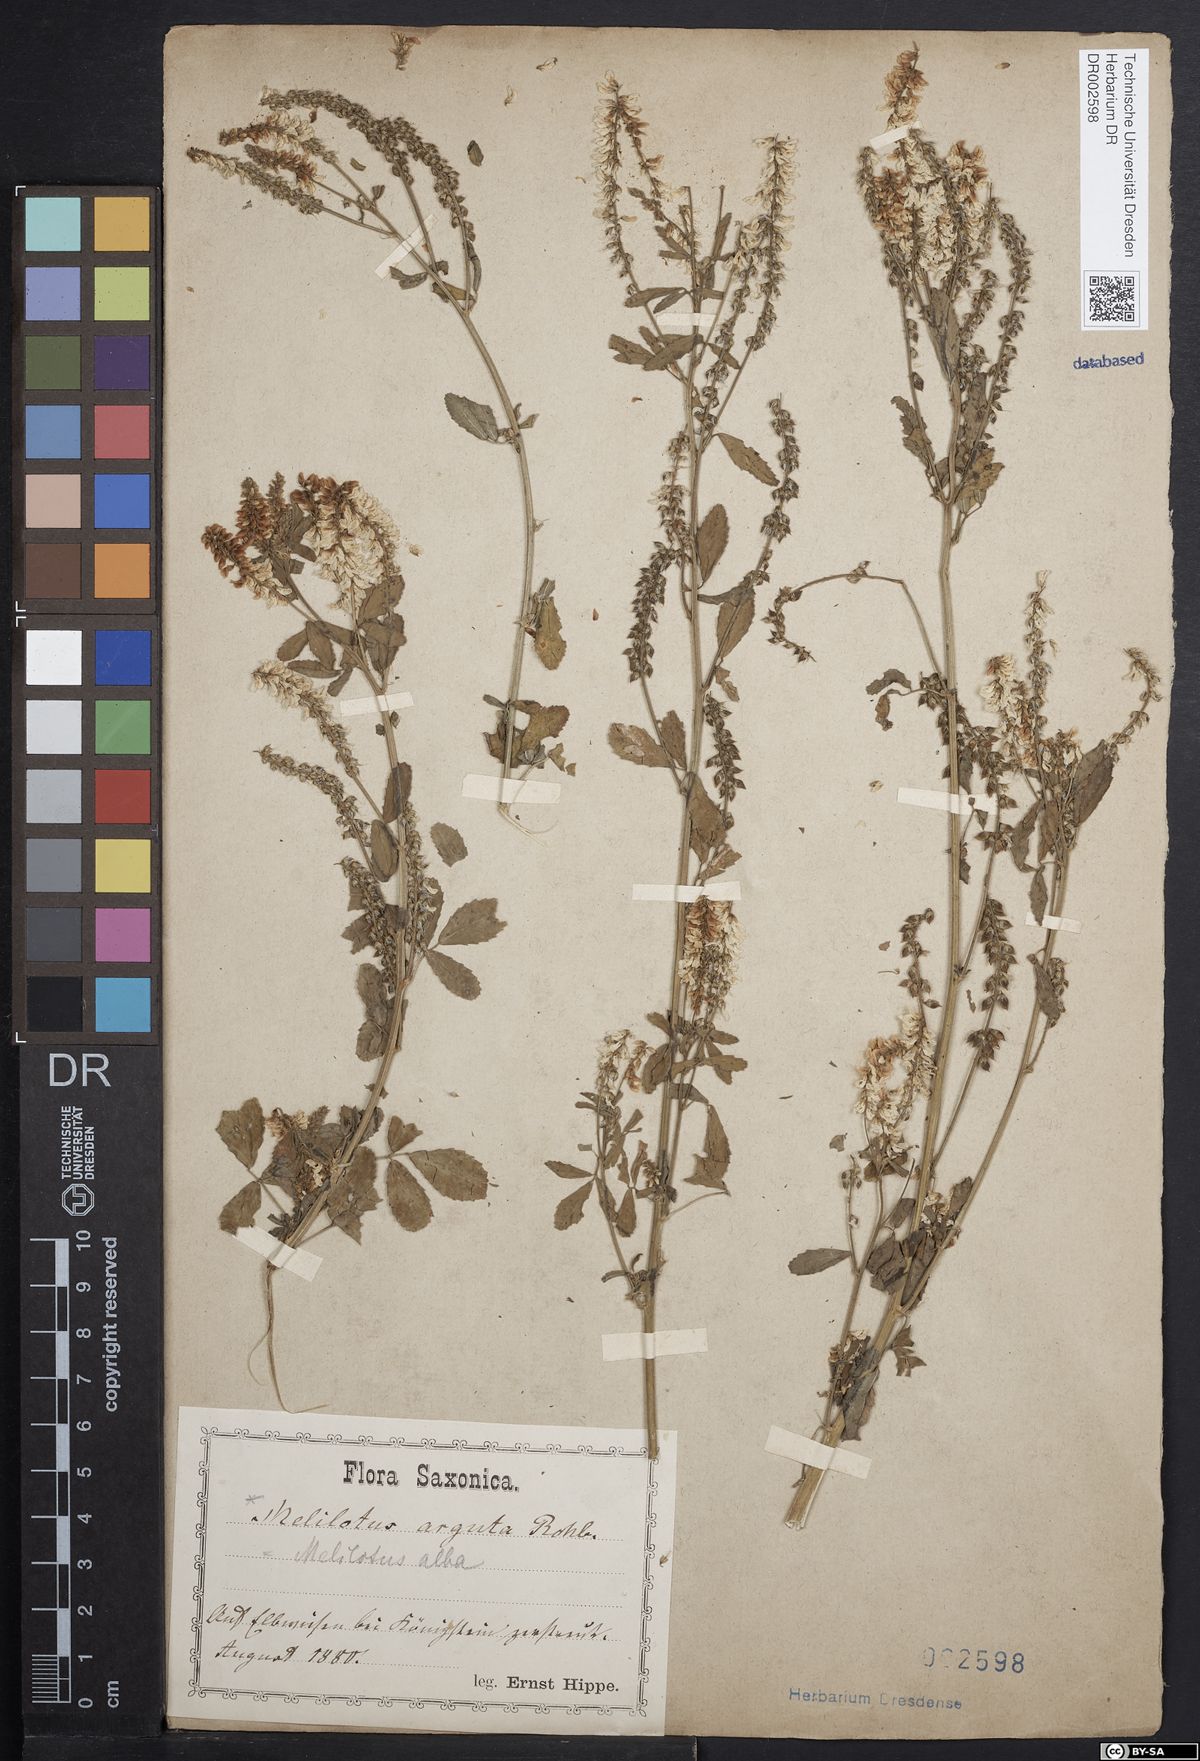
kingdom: Plantae
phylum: Tracheophyta
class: Magnoliopsida
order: Fabales
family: Fabaceae
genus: Melilotus
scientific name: Melilotus albus
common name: White melilot
